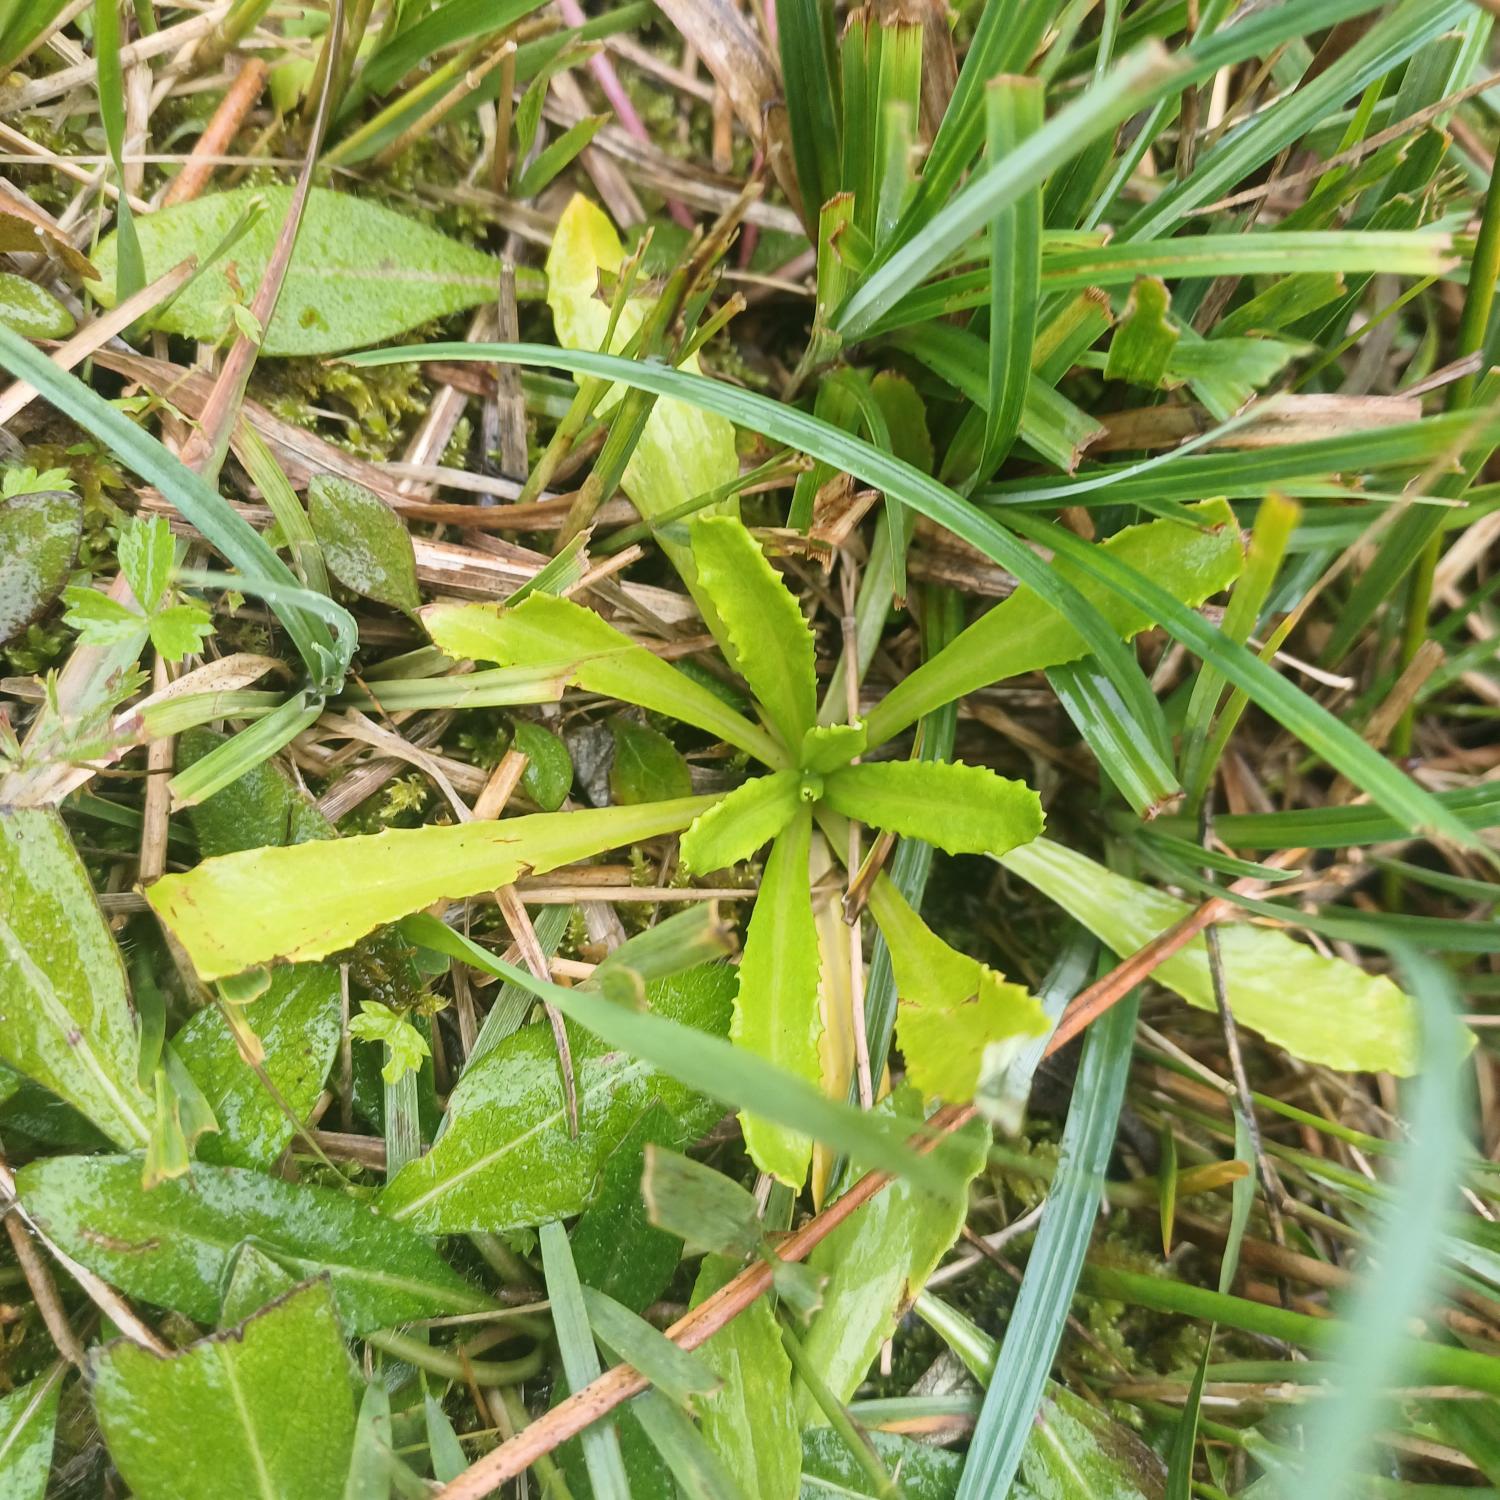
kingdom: Plantae
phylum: Tracheophyta
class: Magnoliopsida
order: Ericales
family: Primulaceae
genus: Primula
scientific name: Primula farinosa
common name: Melet kodriver
